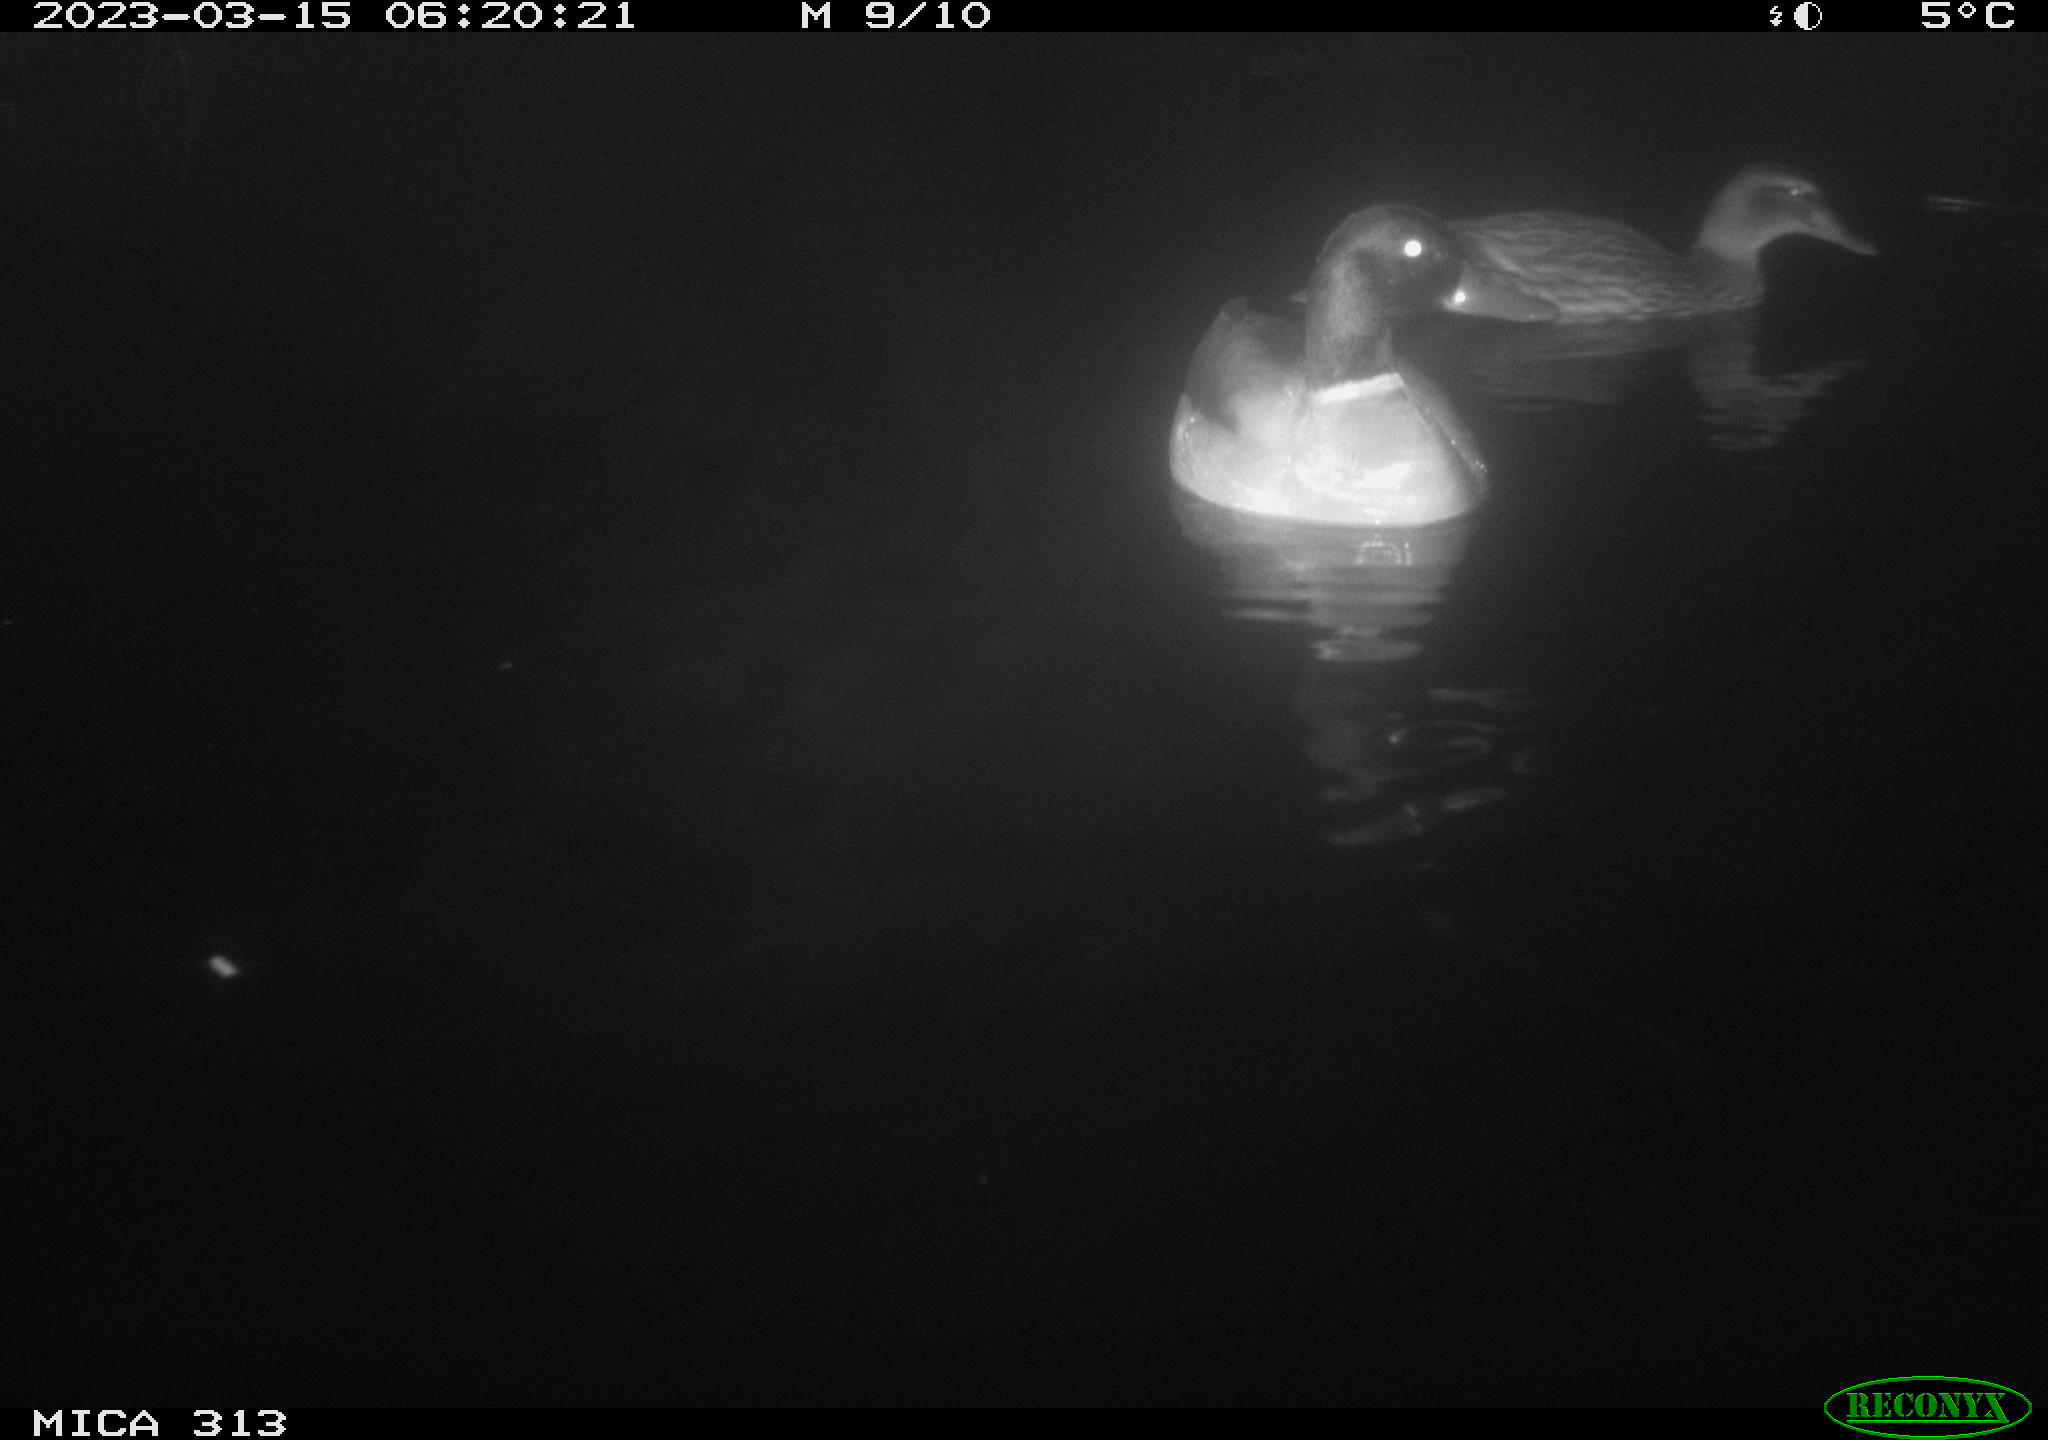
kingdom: Animalia
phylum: Chordata
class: Aves
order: Anseriformes
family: Anatidae
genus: Anas
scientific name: Anas
